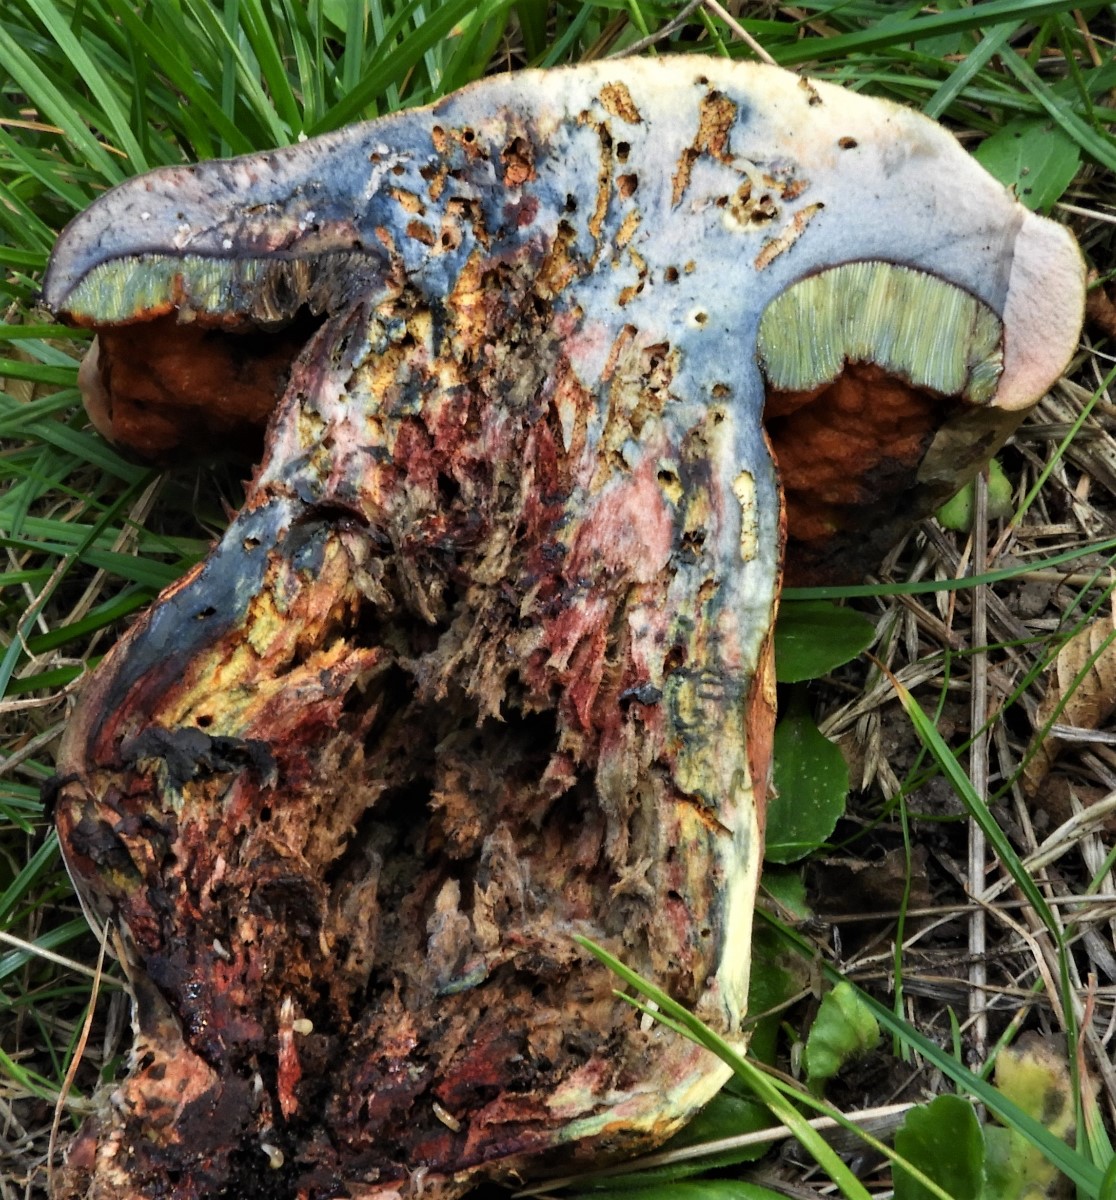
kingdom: Fungi
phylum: Basidiomycota
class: Agaricomycetes
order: Boletales
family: Boletaceae
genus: Suillellus
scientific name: Suillellus luridus
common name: netstokket indigorørhat
